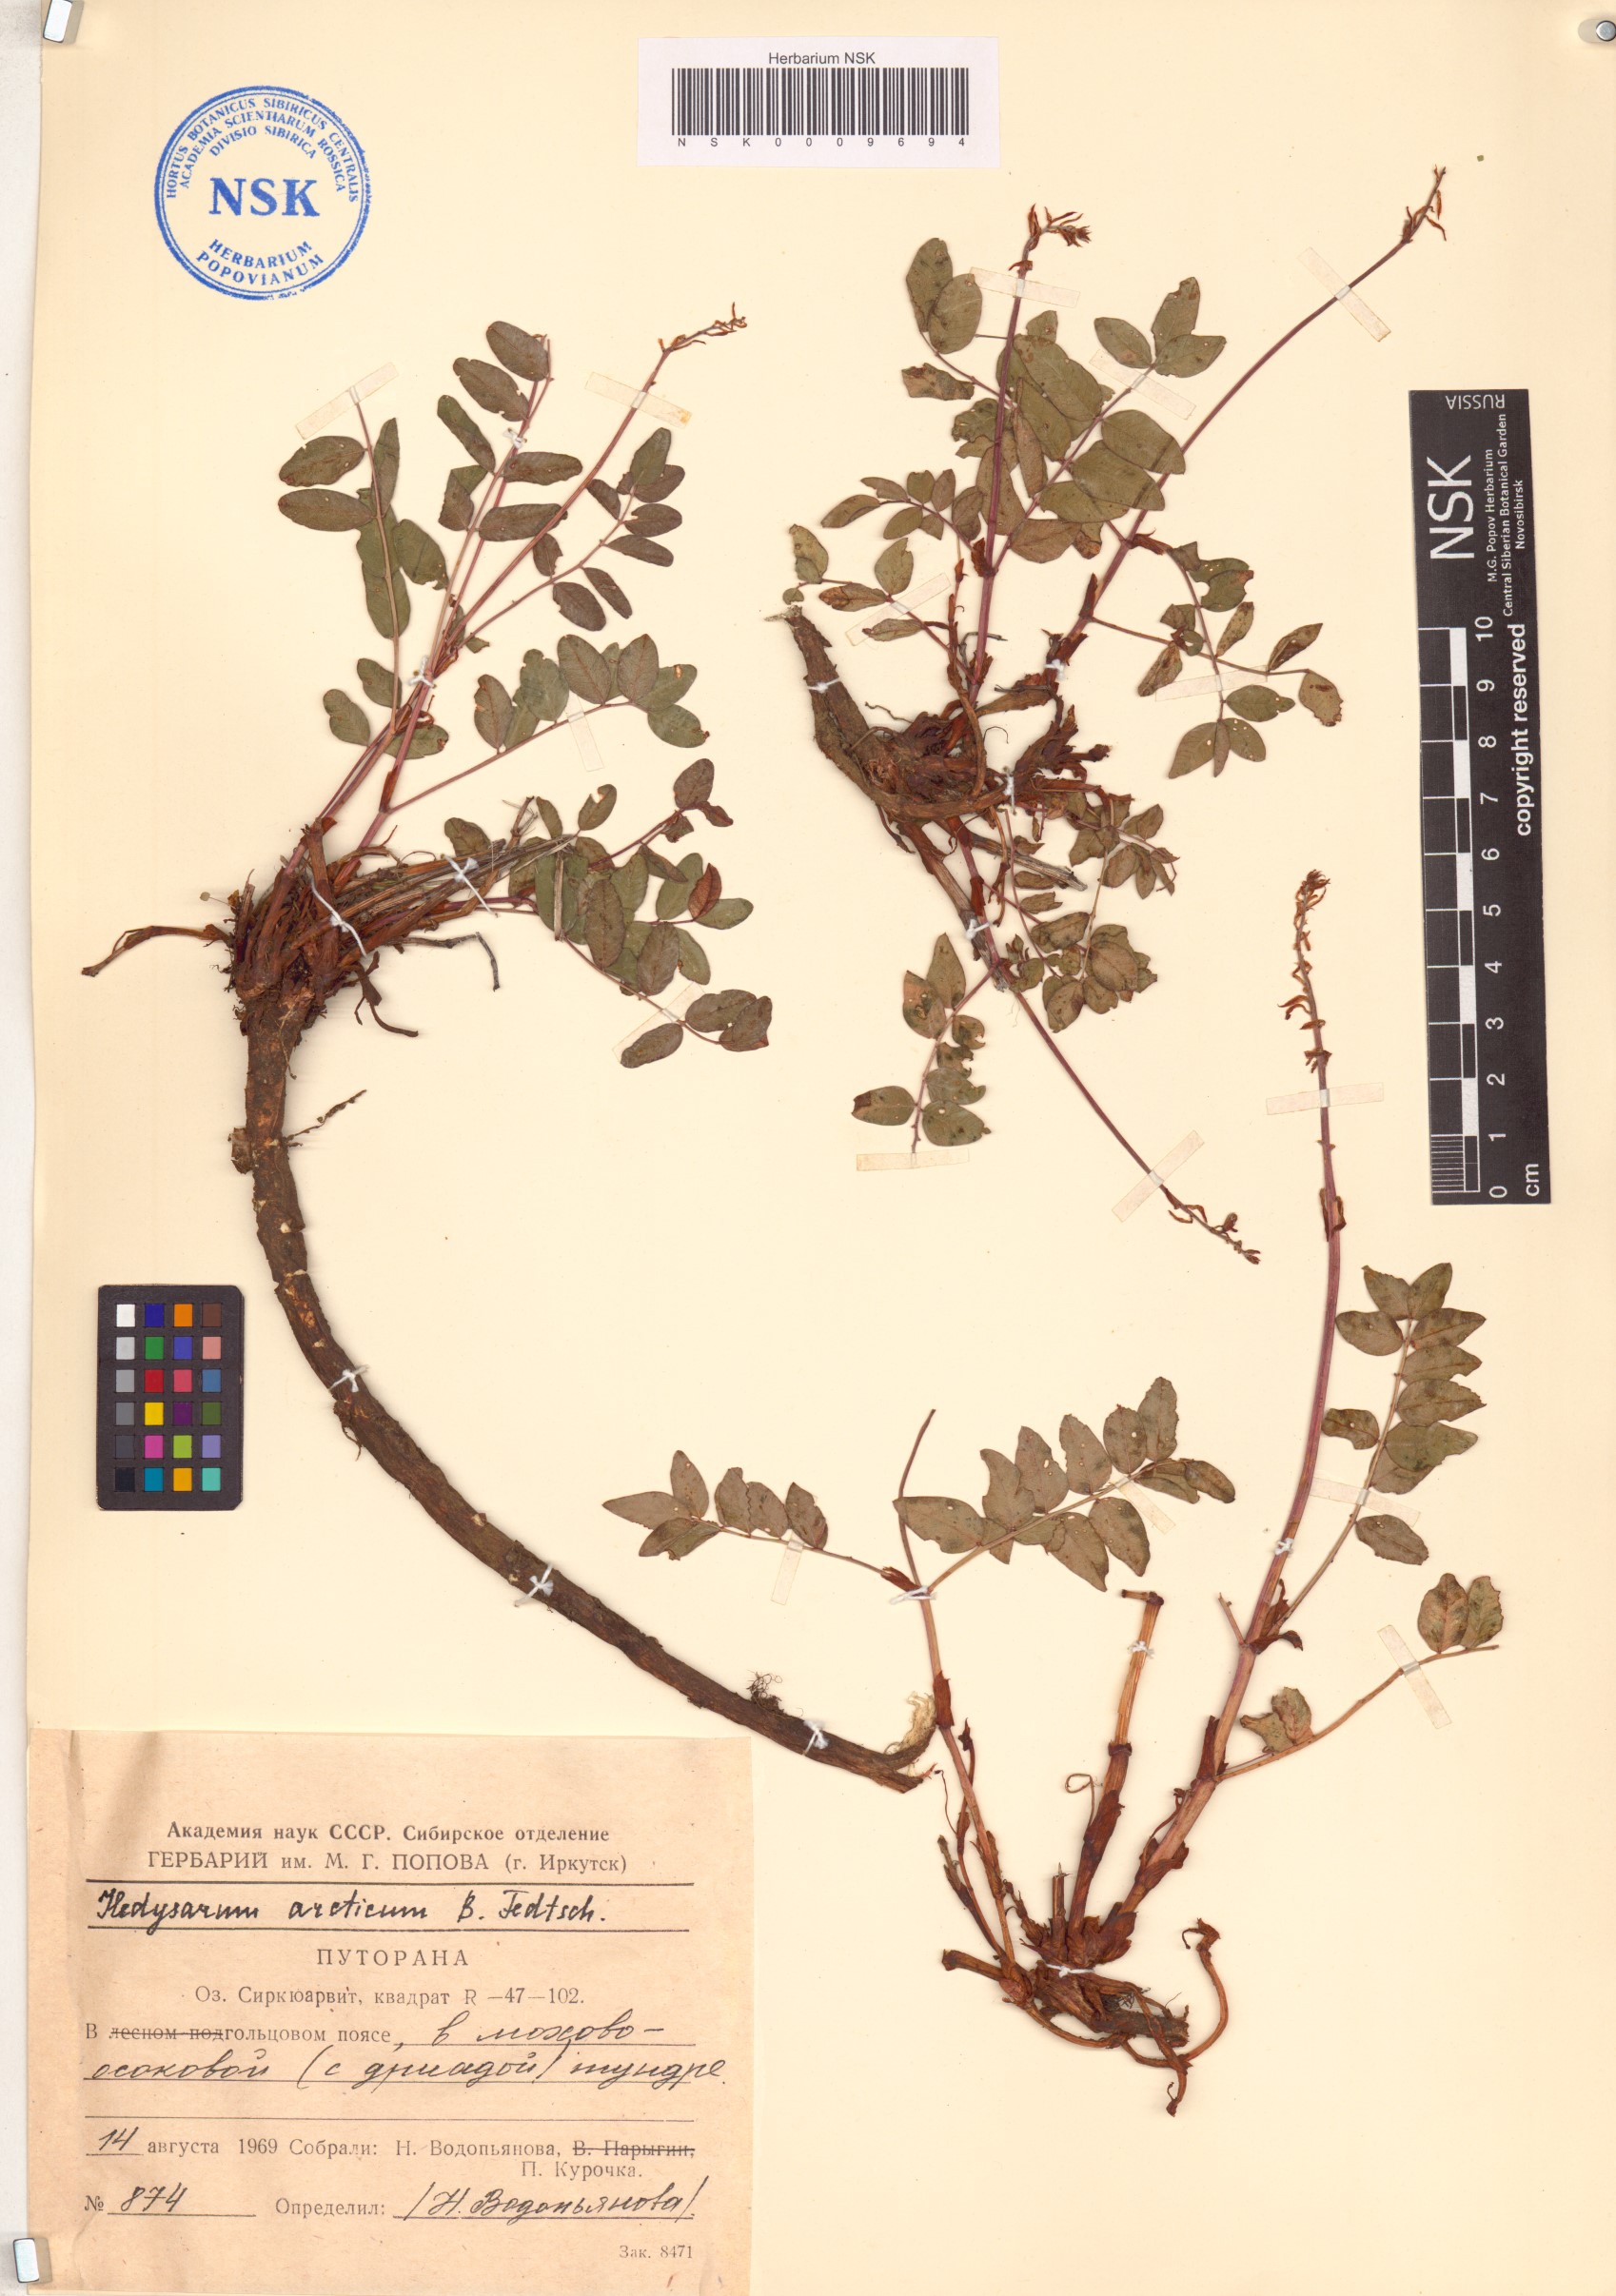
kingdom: Plantae
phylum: Tracheophyta
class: Magnoliopsida
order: Fabales
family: Fabaceae
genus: Hedysarum
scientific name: Hedysarum hedysaroides
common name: Alpine french-honeysuckle
